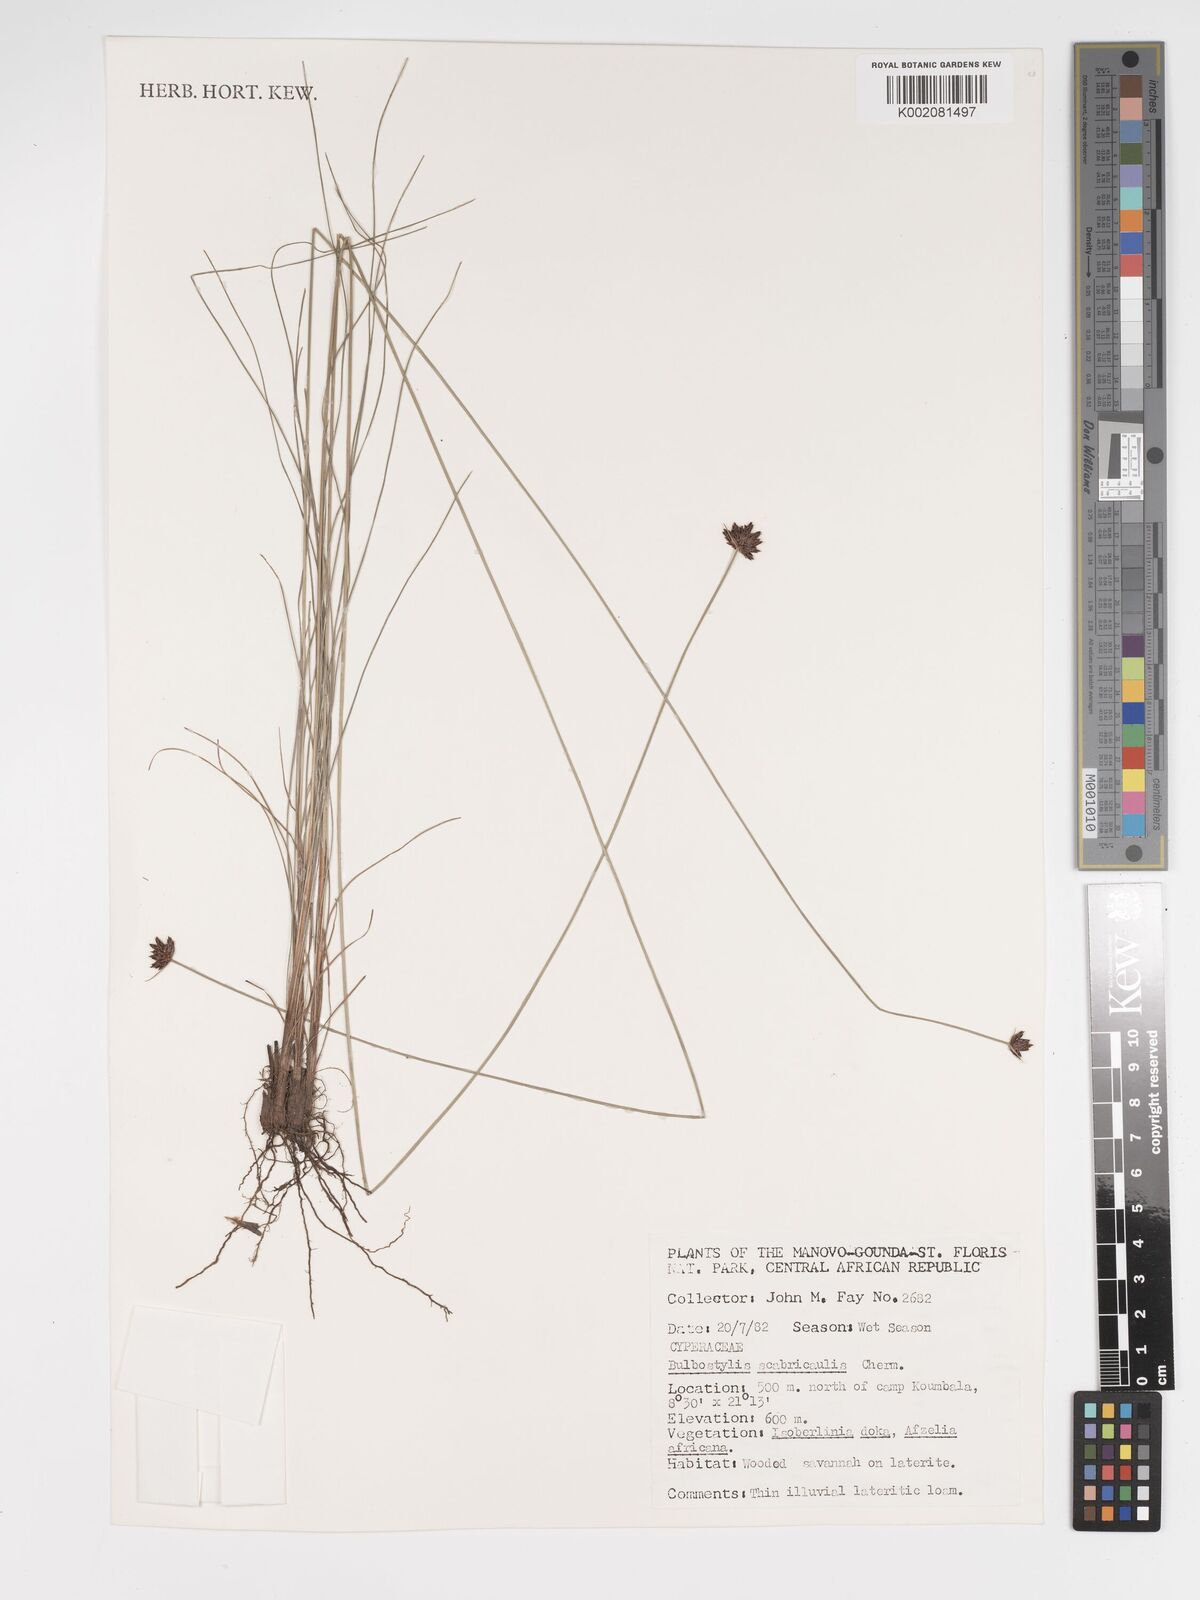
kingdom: Plantae
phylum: Tracheophyta
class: Liliopsida
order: Poales
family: Cyperaceae
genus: Bulbostylis
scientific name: Bulbostylis scabricaulis
